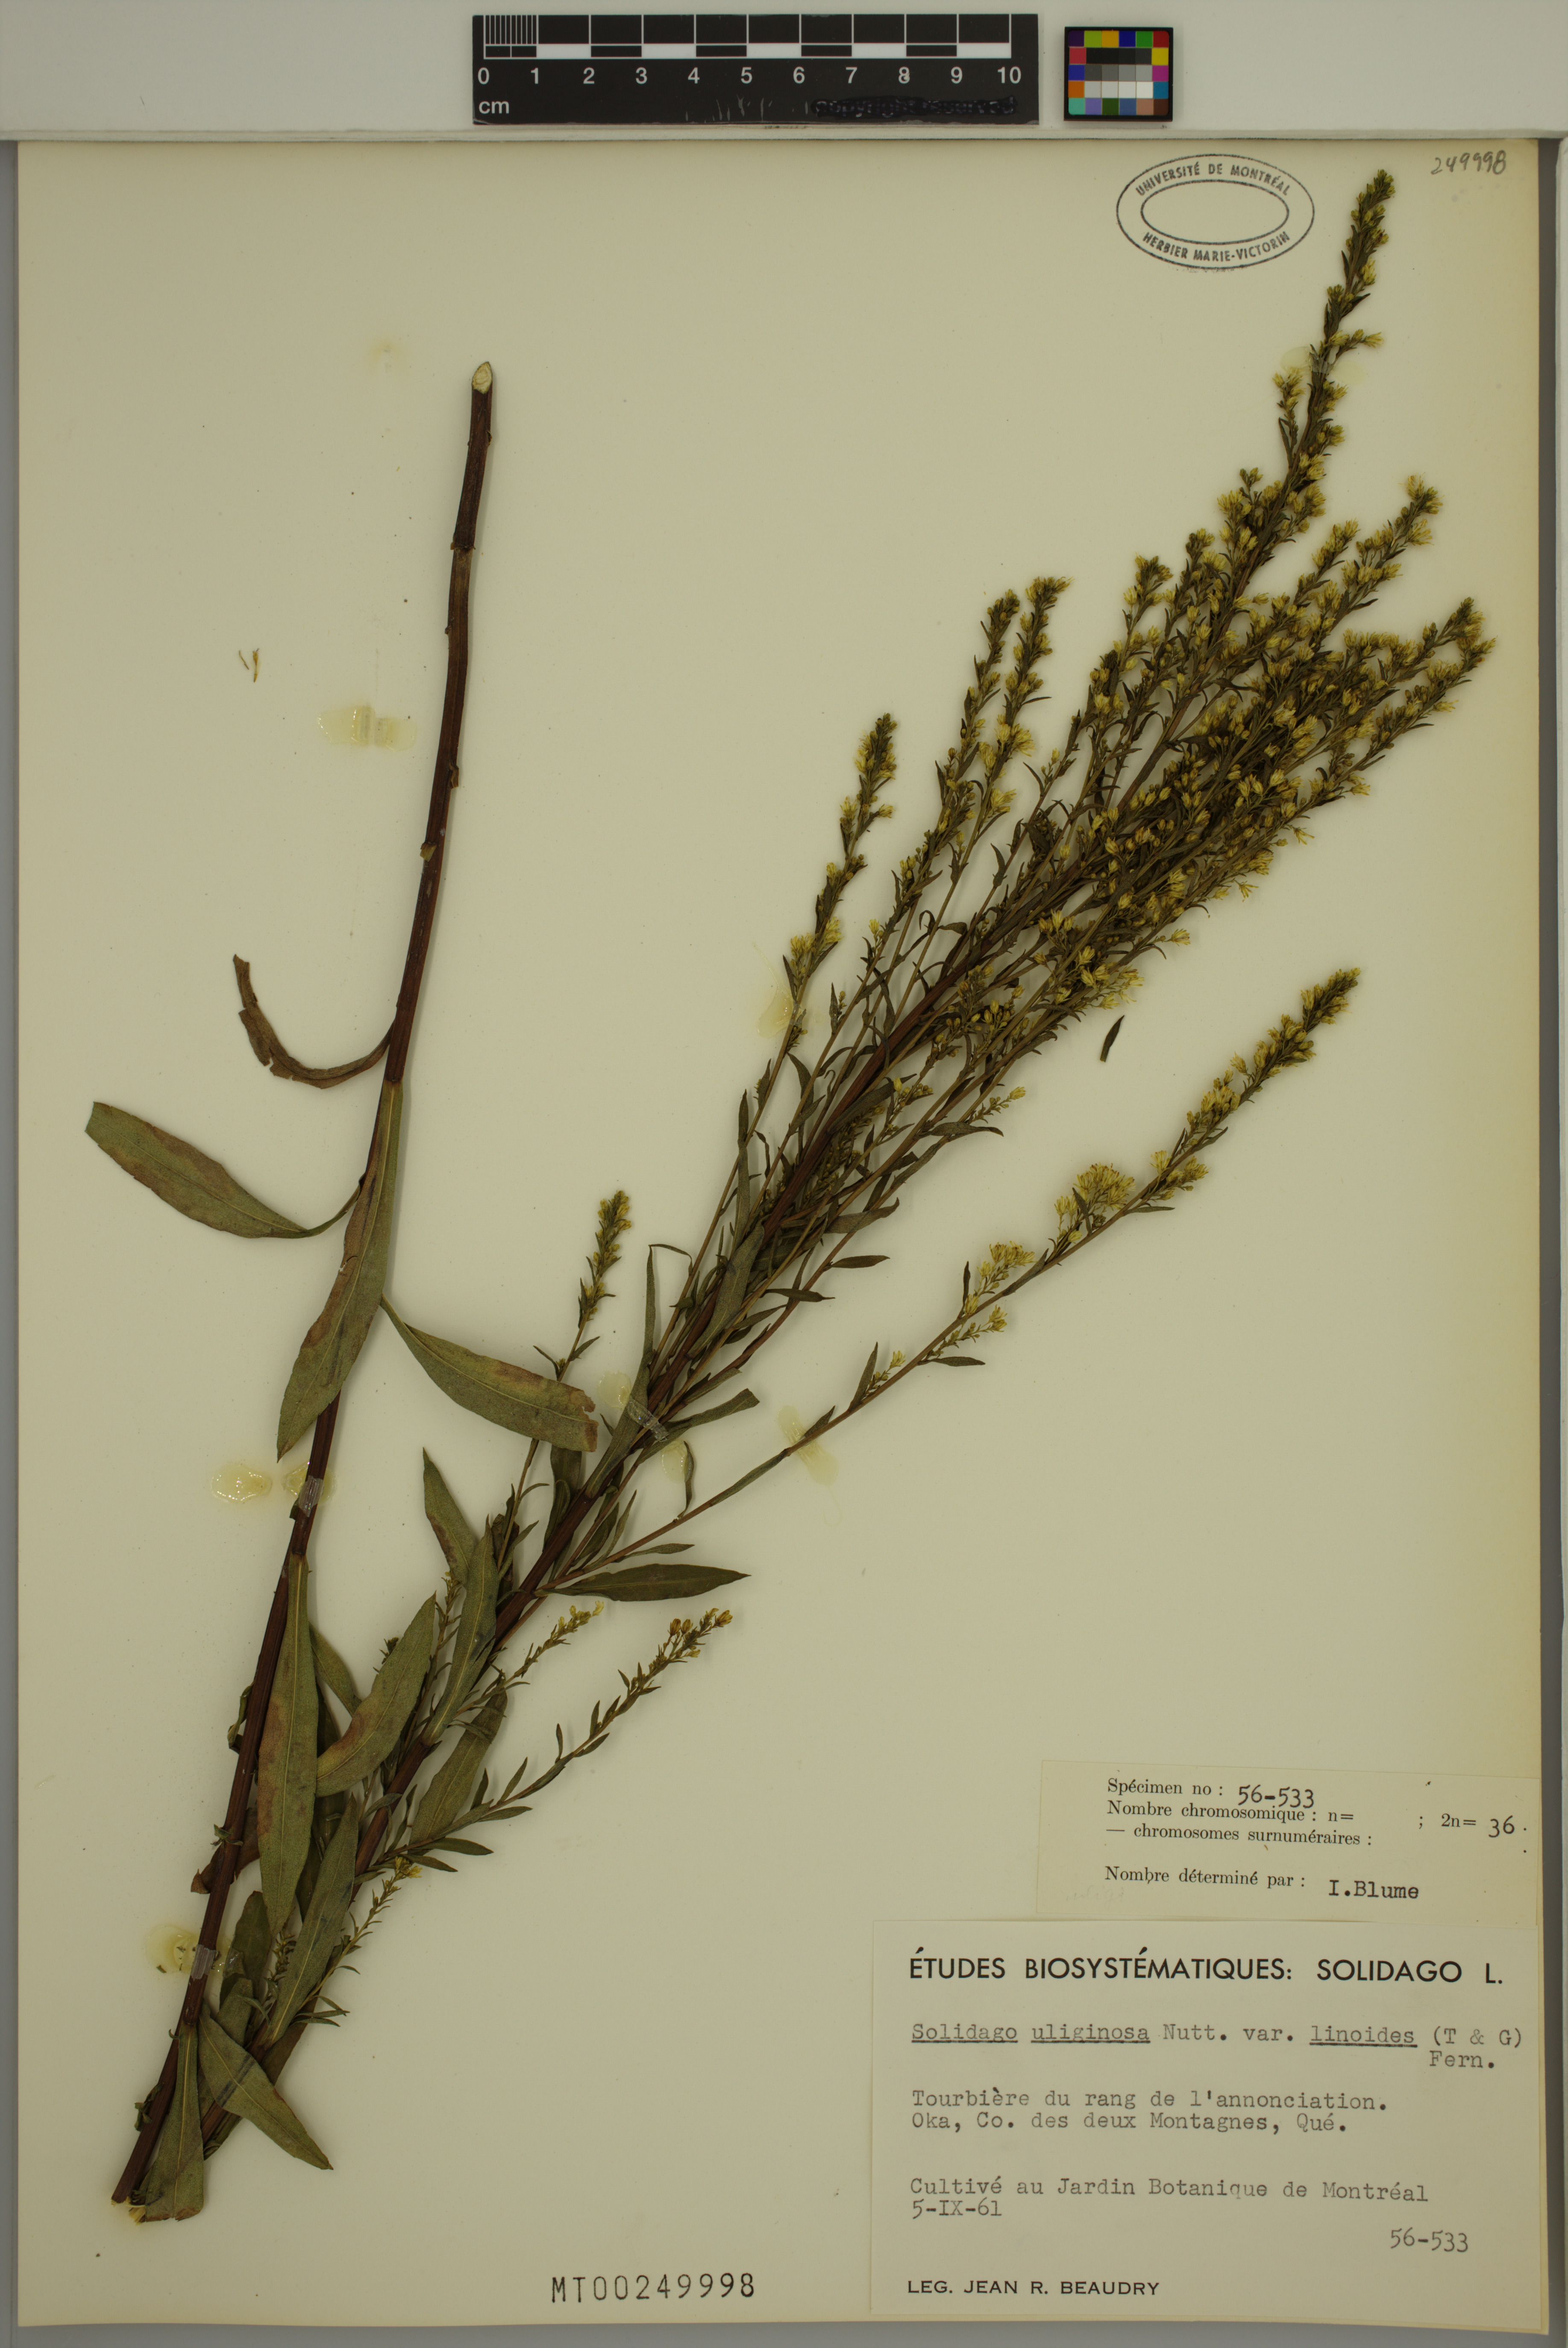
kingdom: Plantae
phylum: Tracheophyta
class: Magnoliopsida
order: Asterales
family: Asteraceae
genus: Solidago
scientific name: Solidago uliginosa
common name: Bog goldenrod
